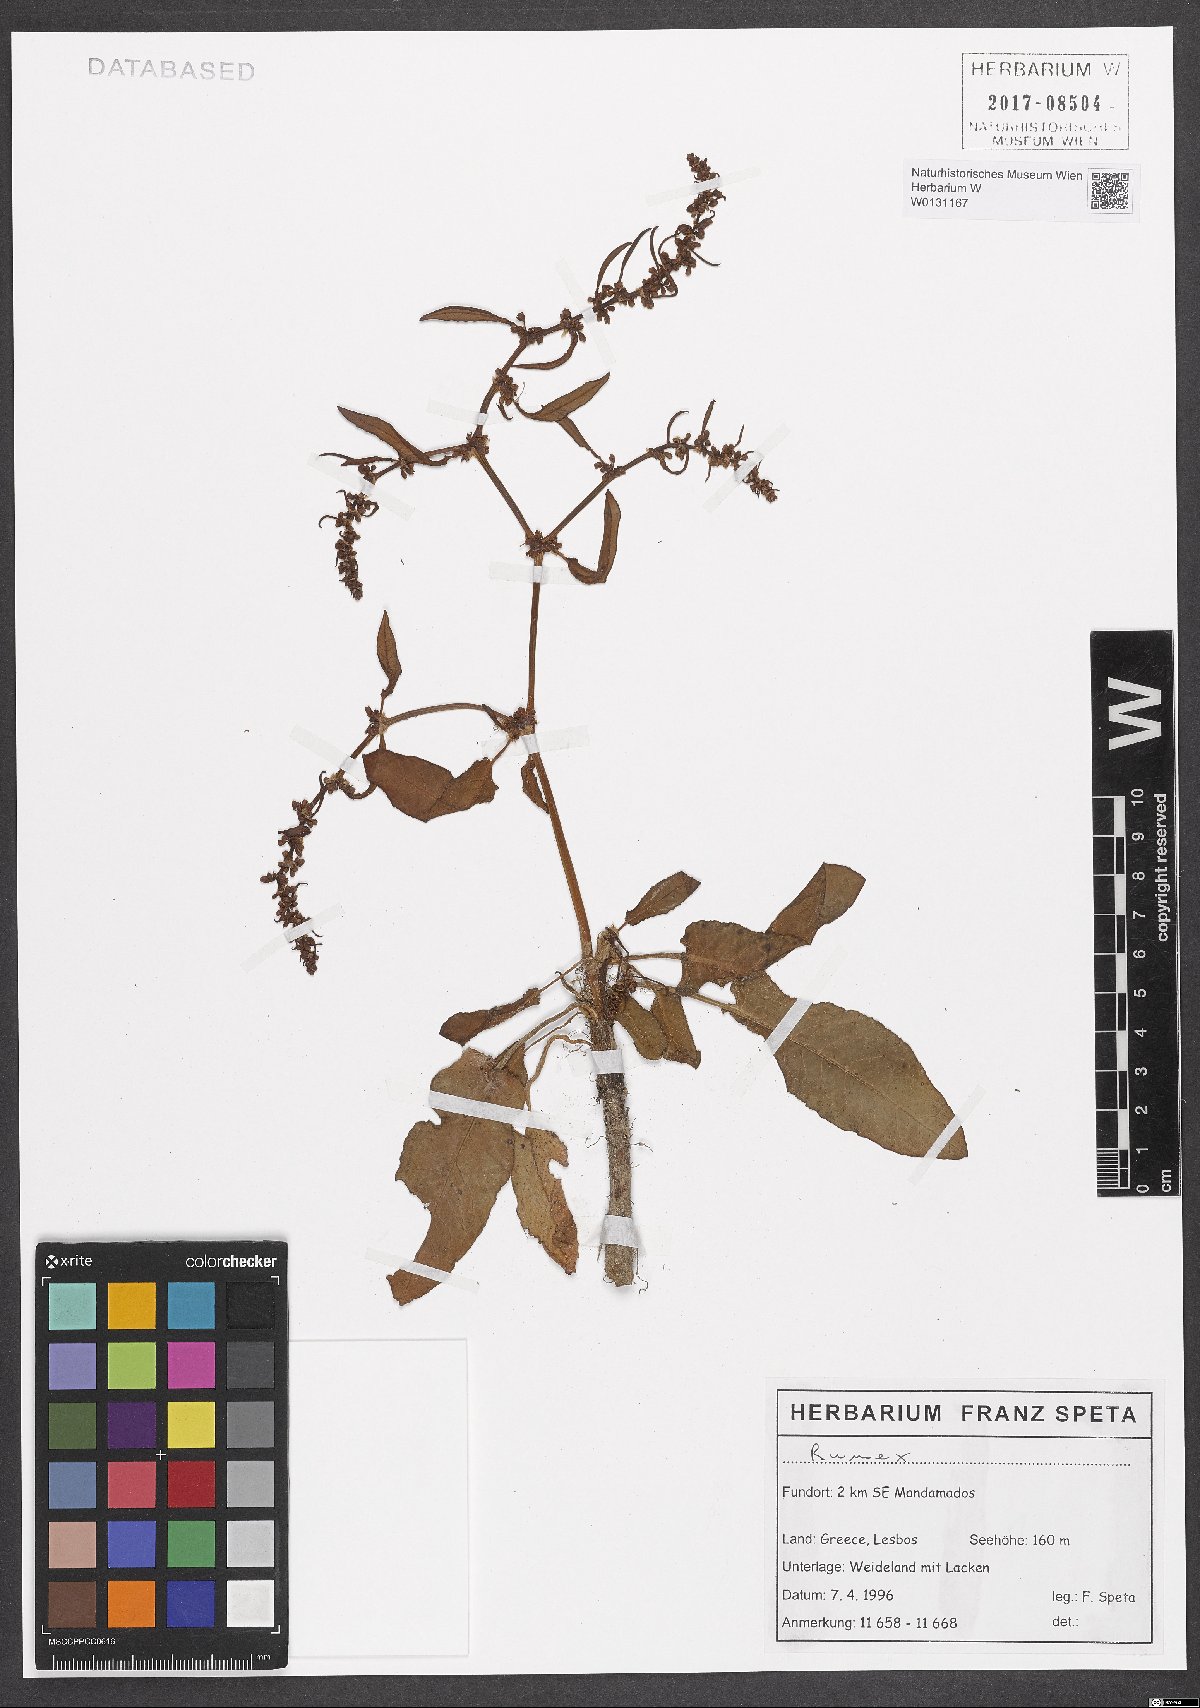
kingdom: Plantae
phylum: Tracheophyta
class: Magnoliopsida
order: Caryophyllales
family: Polygonaceae
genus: Rumex
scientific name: Rumex
